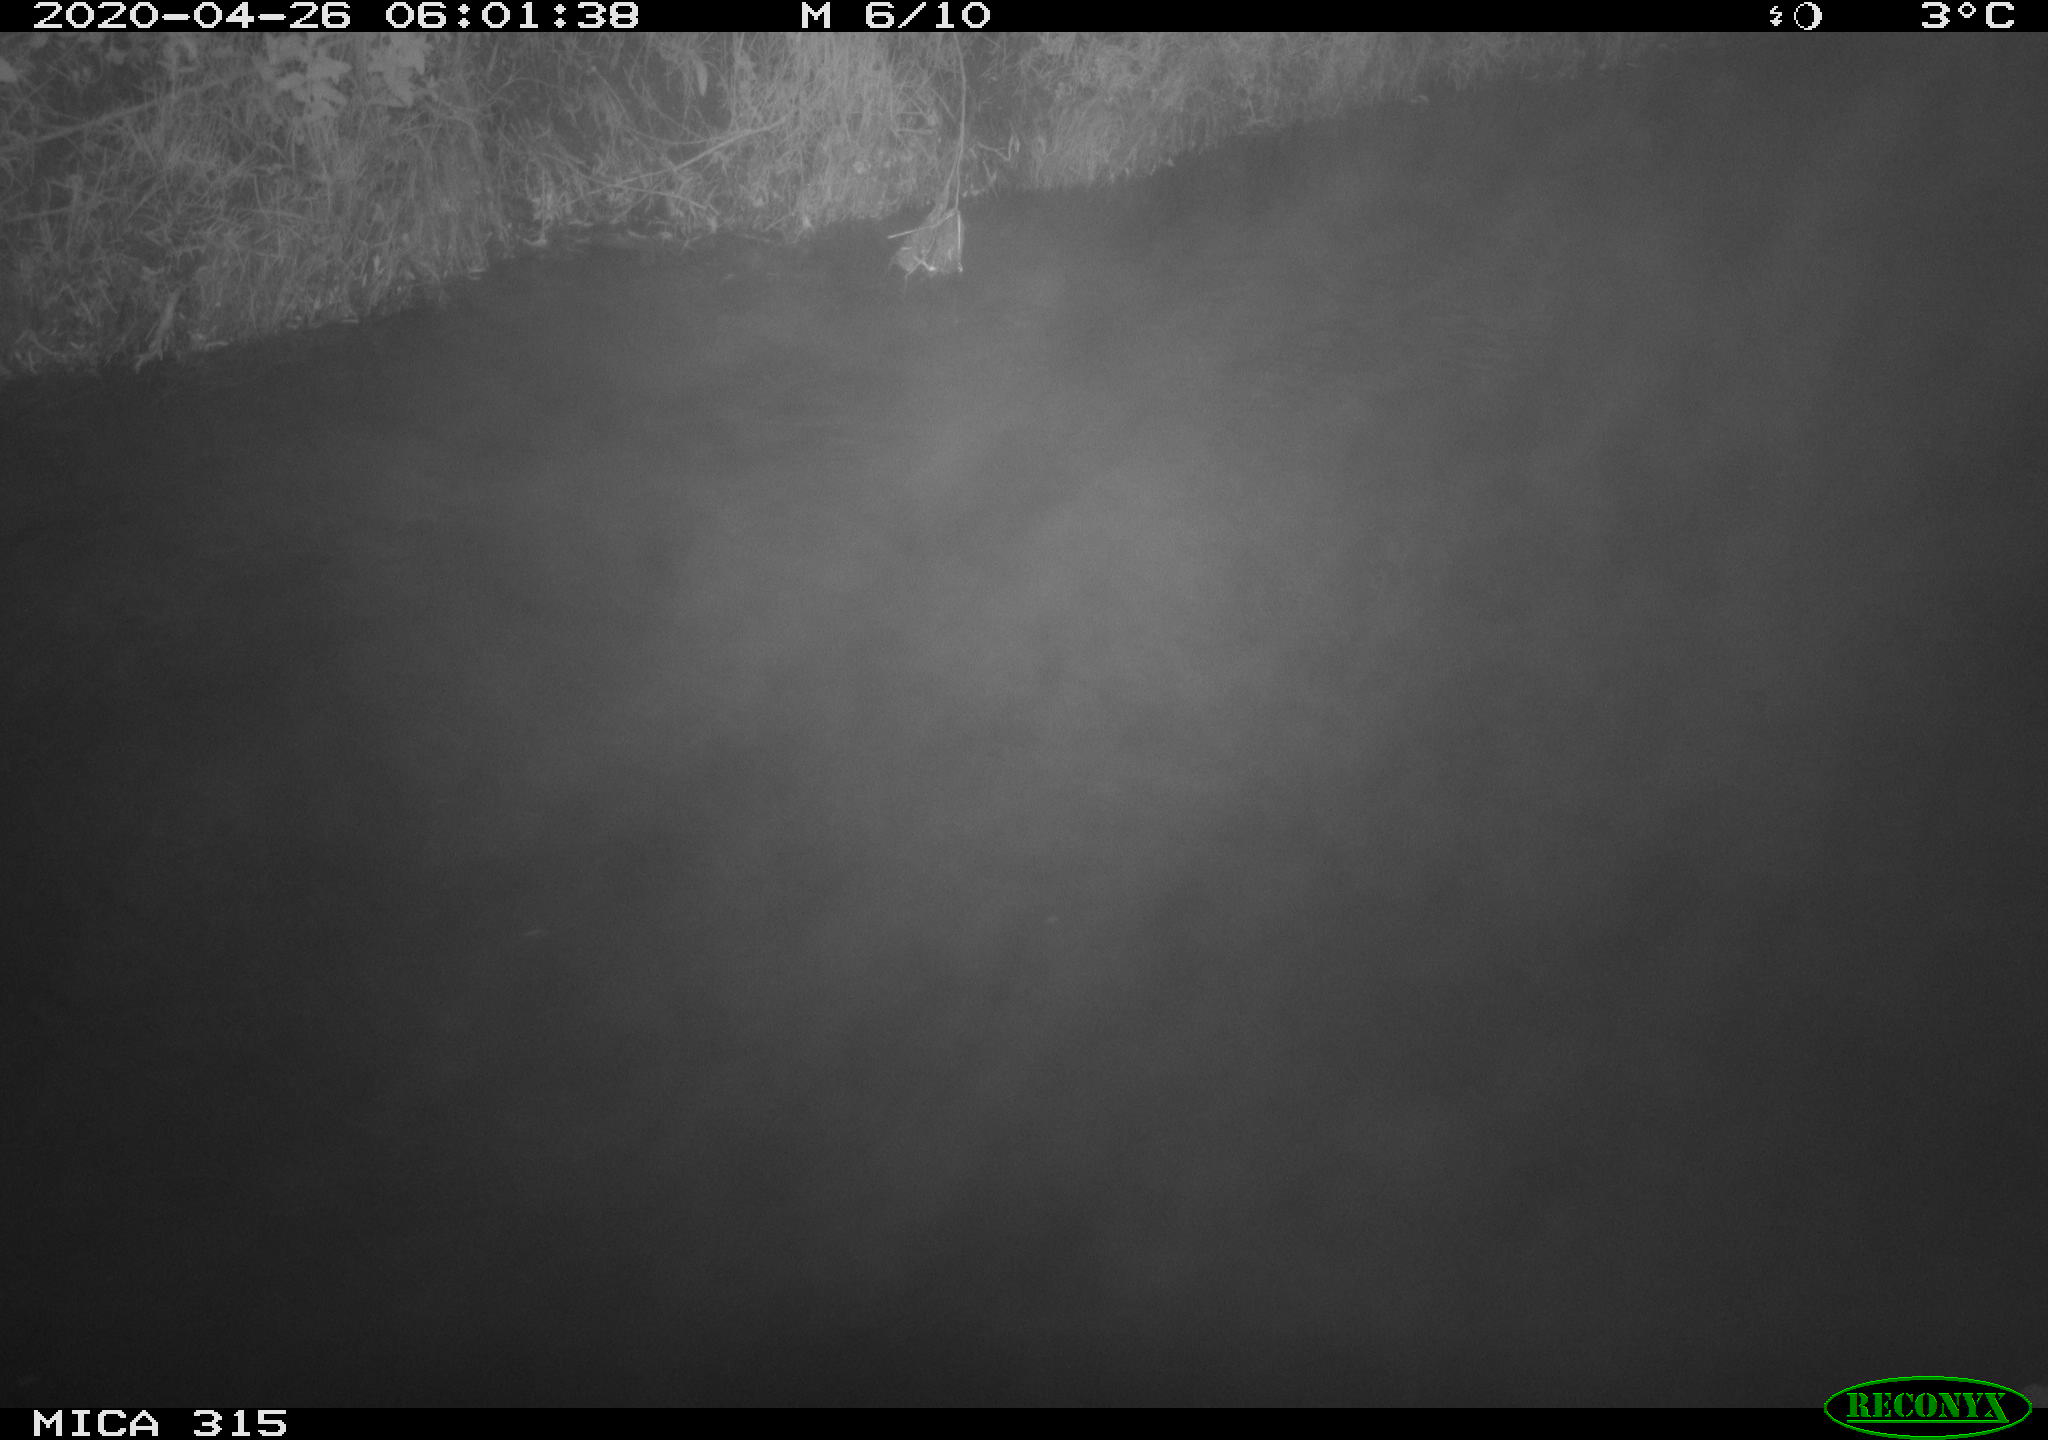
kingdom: Animalia
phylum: Chordata
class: Aves
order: Anseriformes
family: Anatidae
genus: Anas
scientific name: Anas platyrhynchos
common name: Mallard
